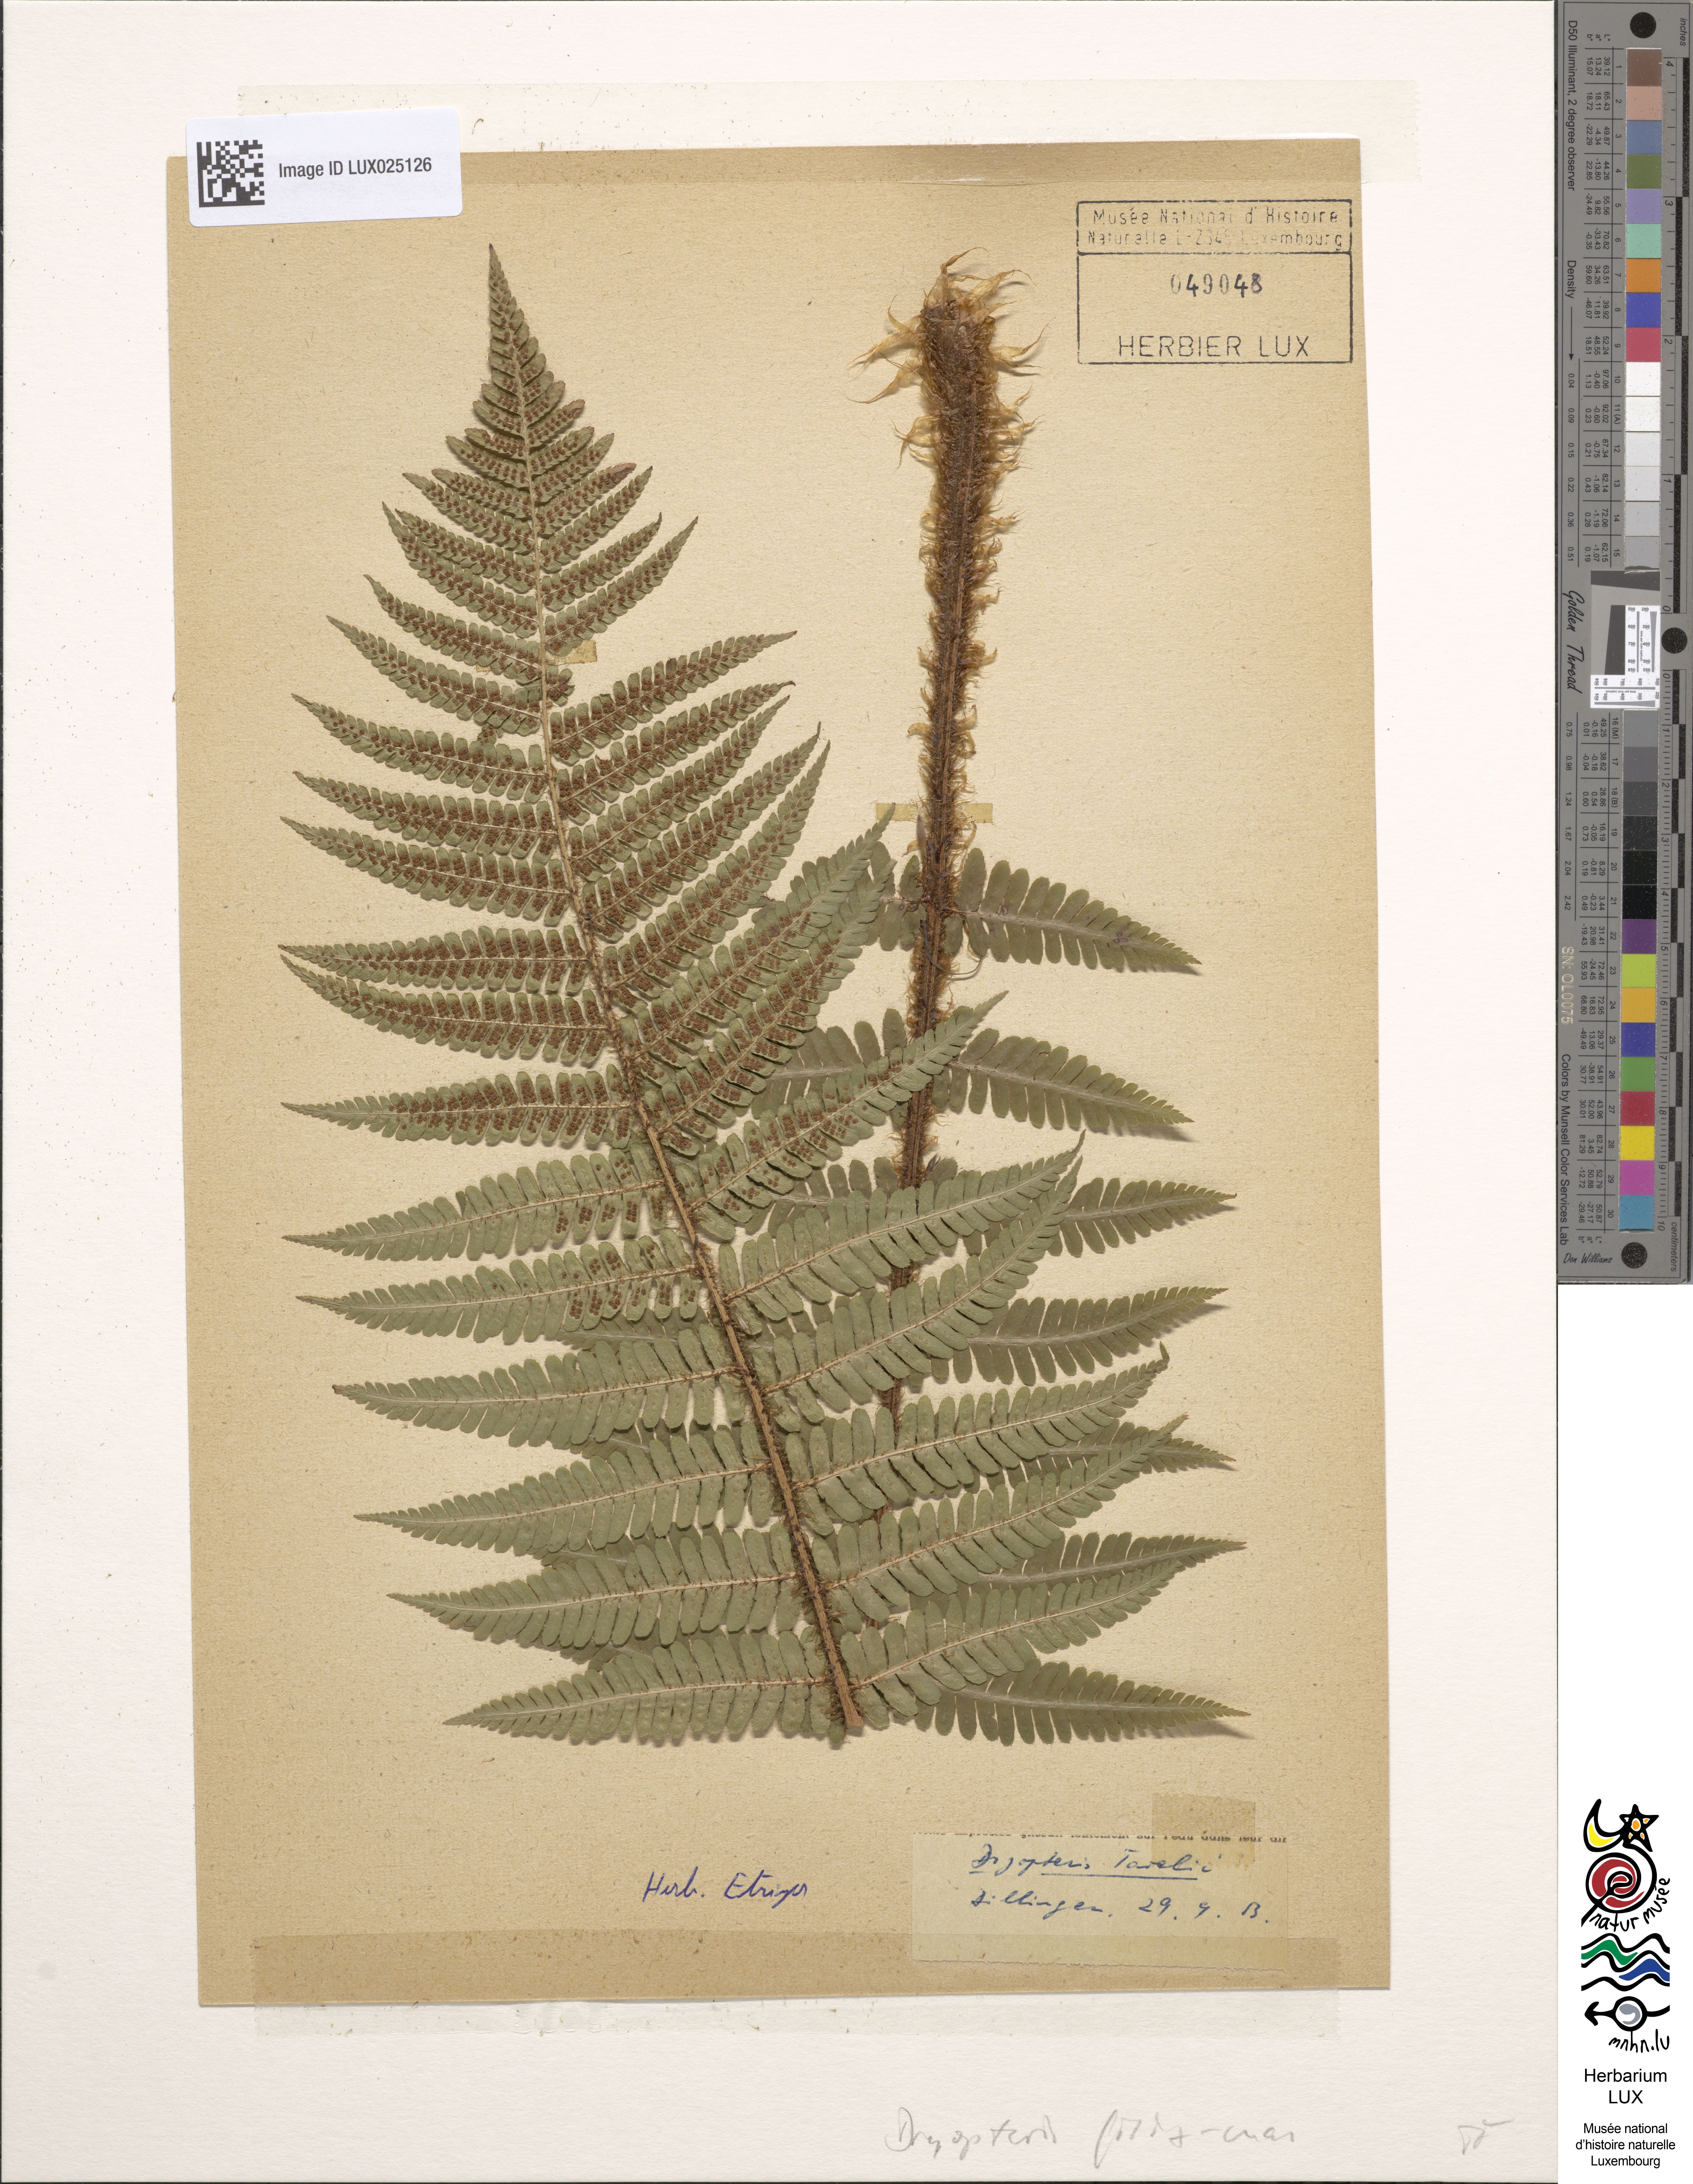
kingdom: Plantae
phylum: Tracheophyta
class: Polypodiopsida
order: Polypodiales
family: Dryopteridaceae
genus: Dryopteris
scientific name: Dryopteris borreri
